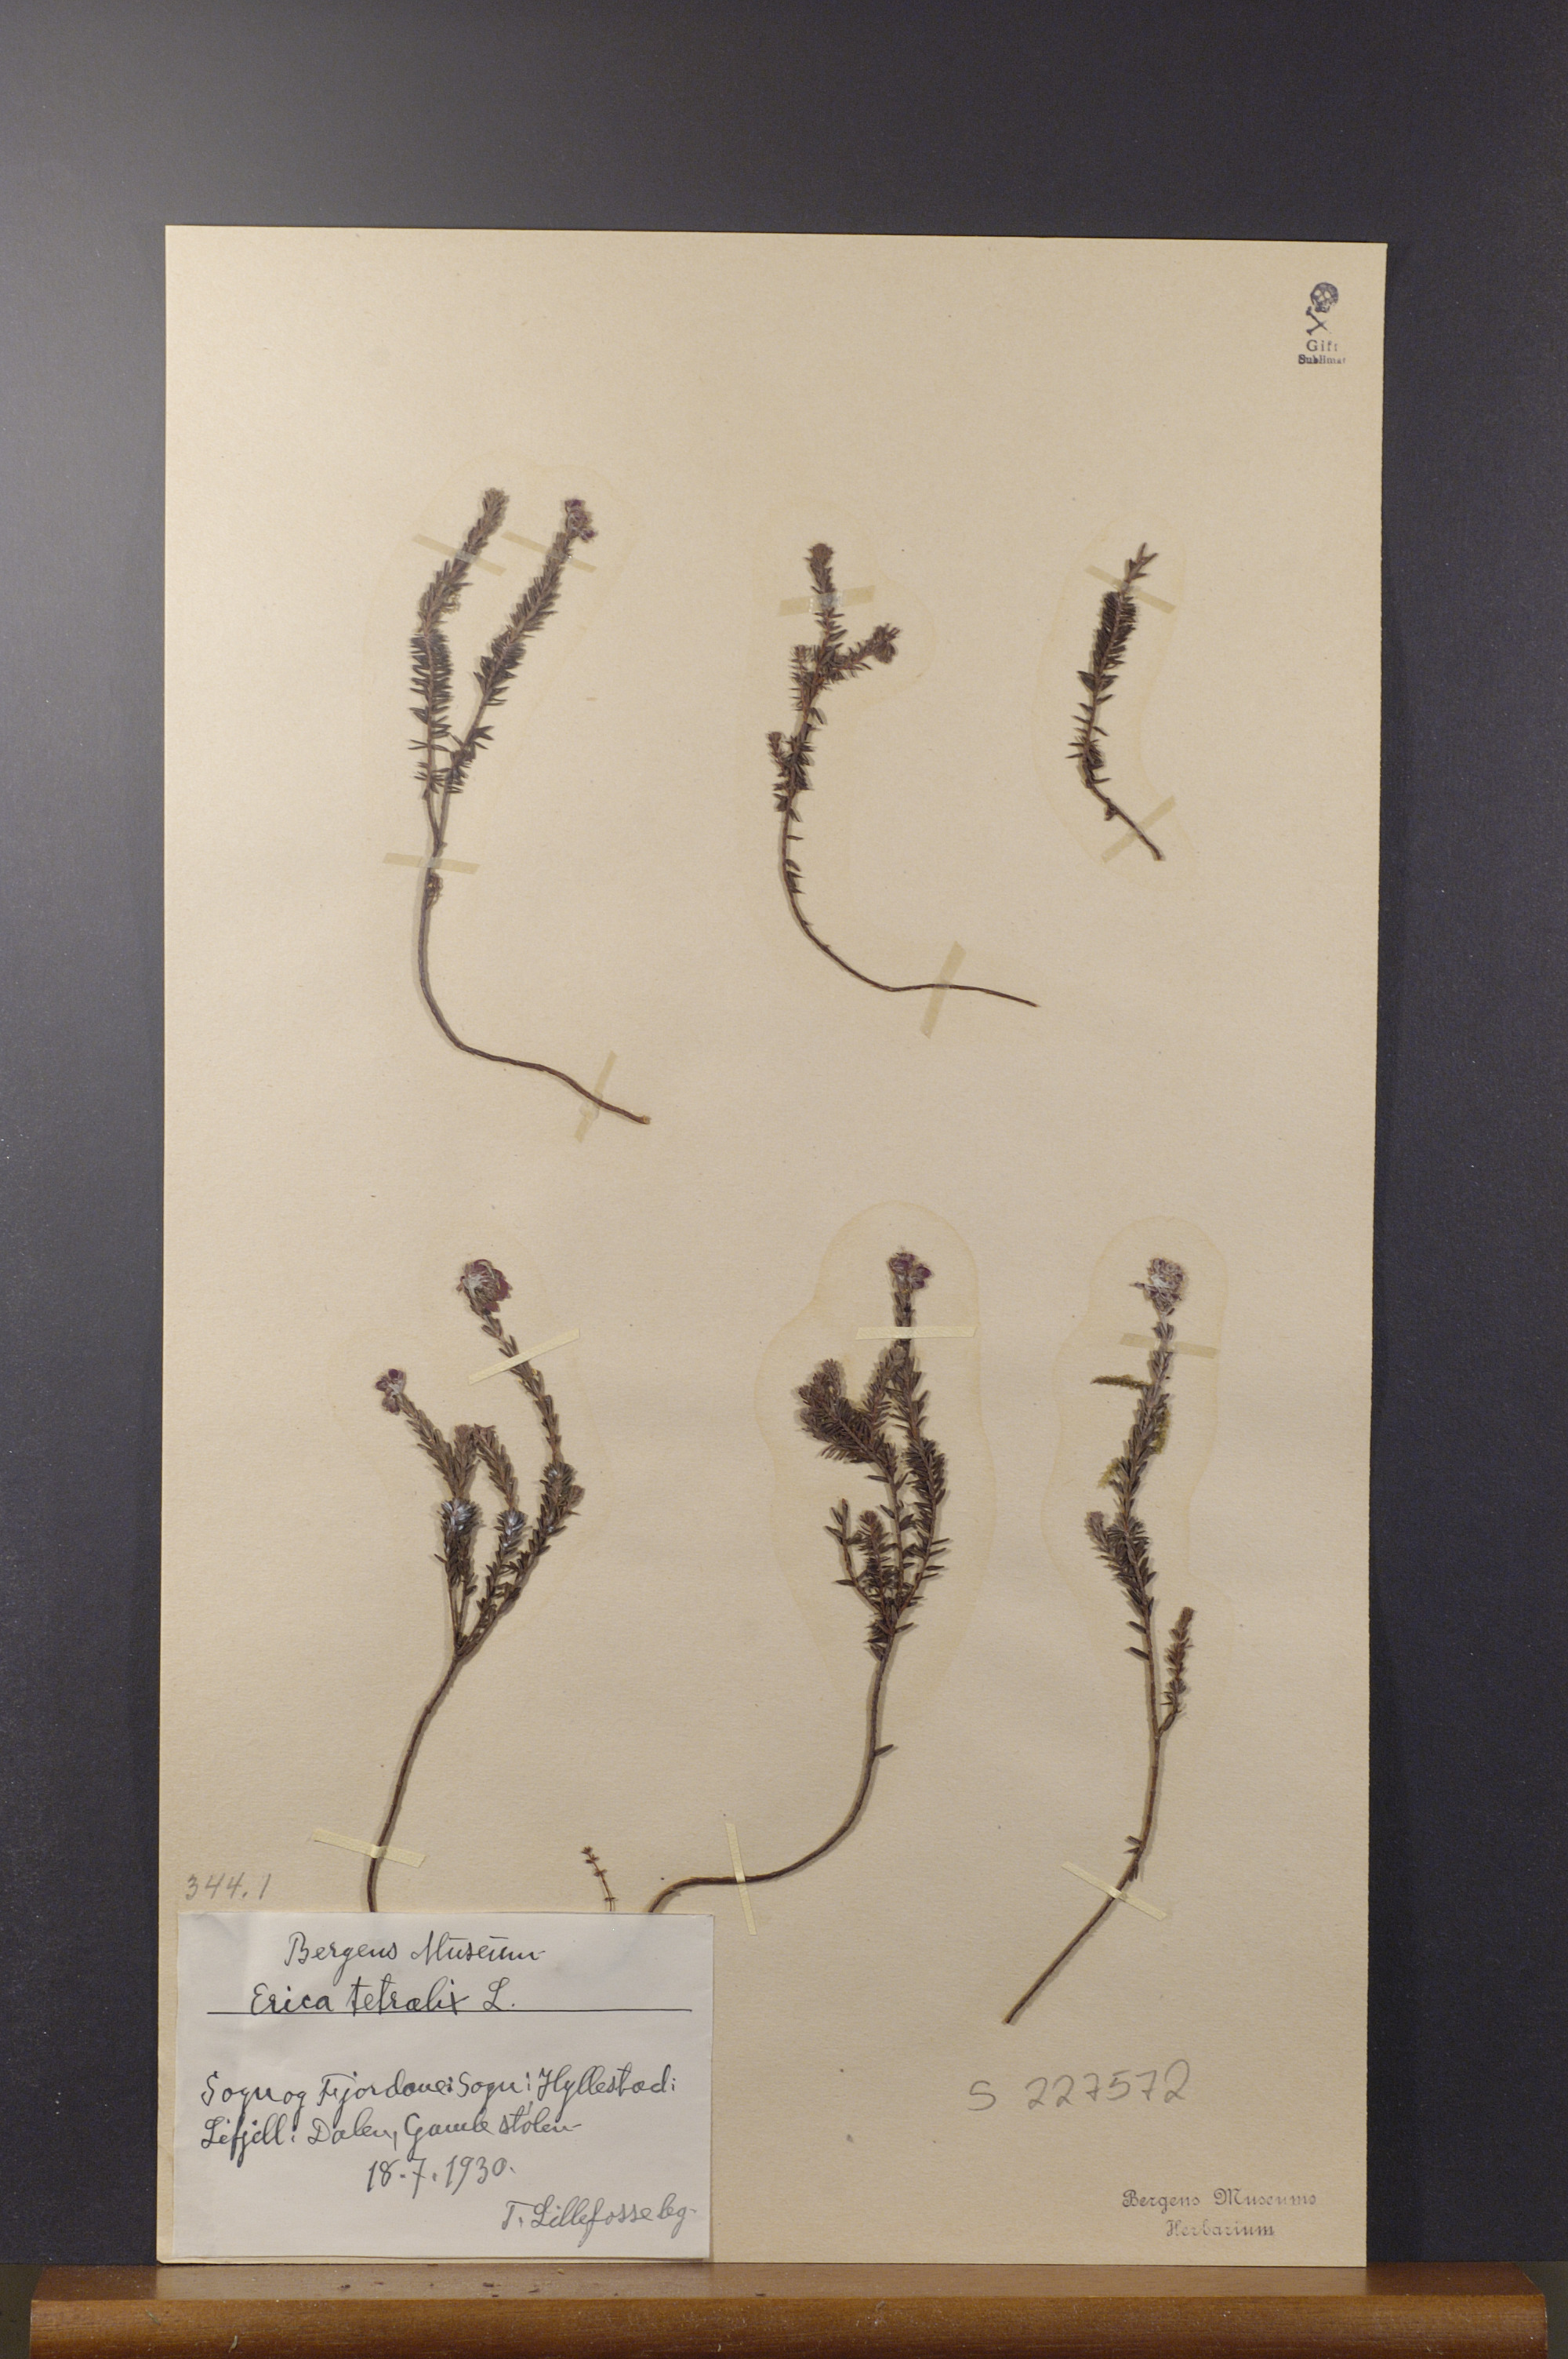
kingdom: Plantae
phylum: Tracheophyta
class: Magnoliopsida
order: Ericales
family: Ericaceae
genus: Erica
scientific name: Erica tetralix
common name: Cross-leaved heath
